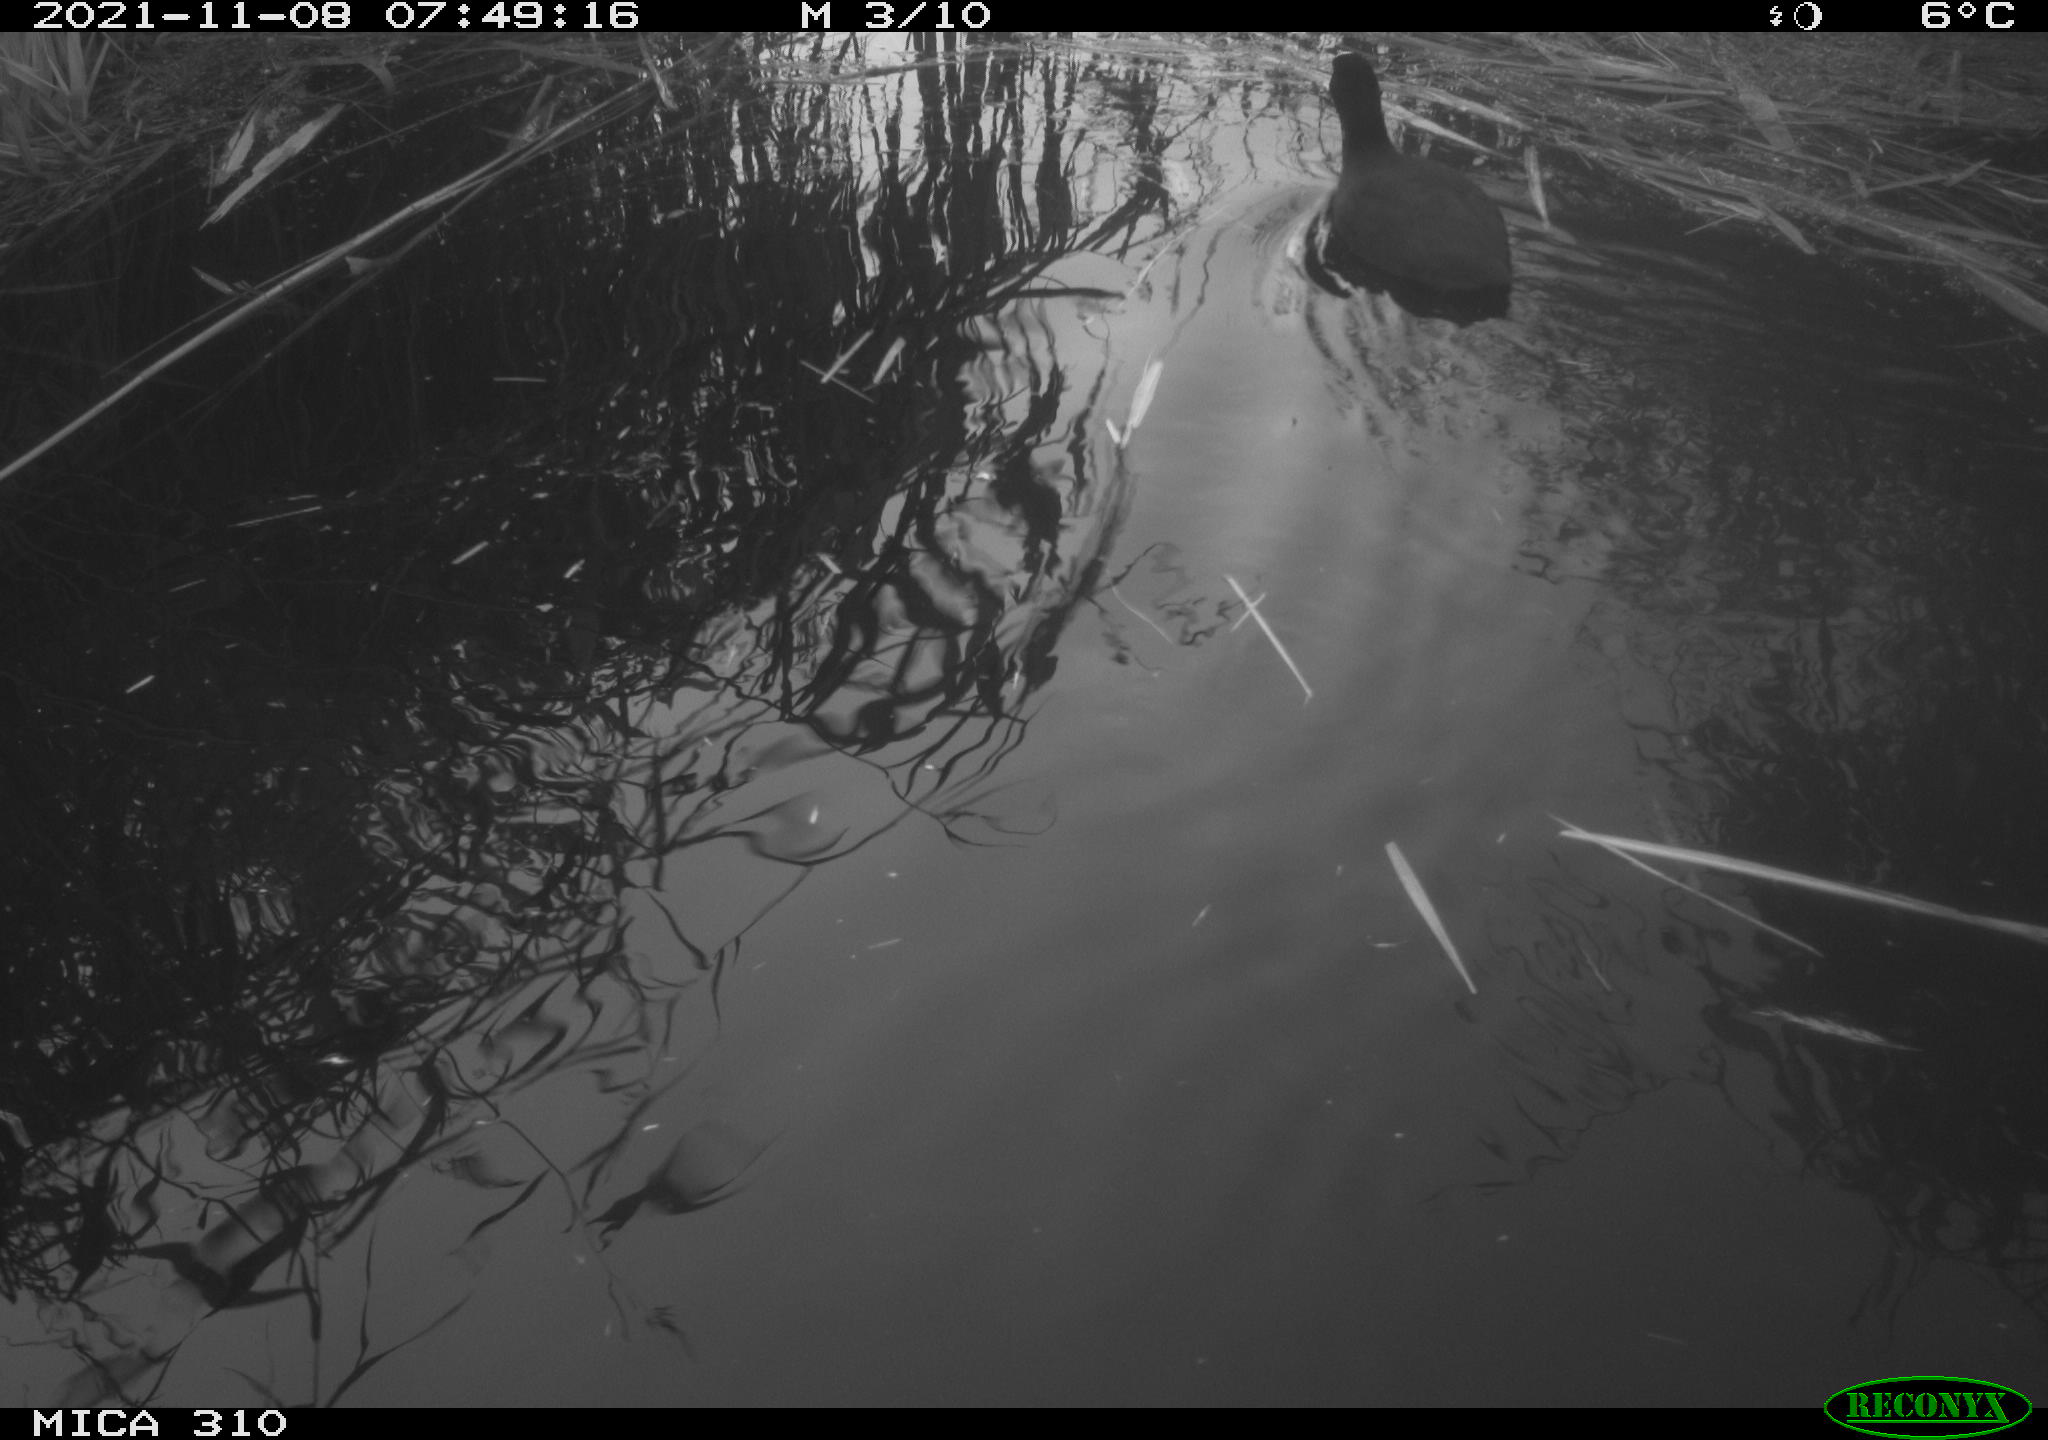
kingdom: Animalia
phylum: Chordata
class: Aves
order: Gruiformes
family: Rallidae
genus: Fulica
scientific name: Fulica atra
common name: Eurasian coot
